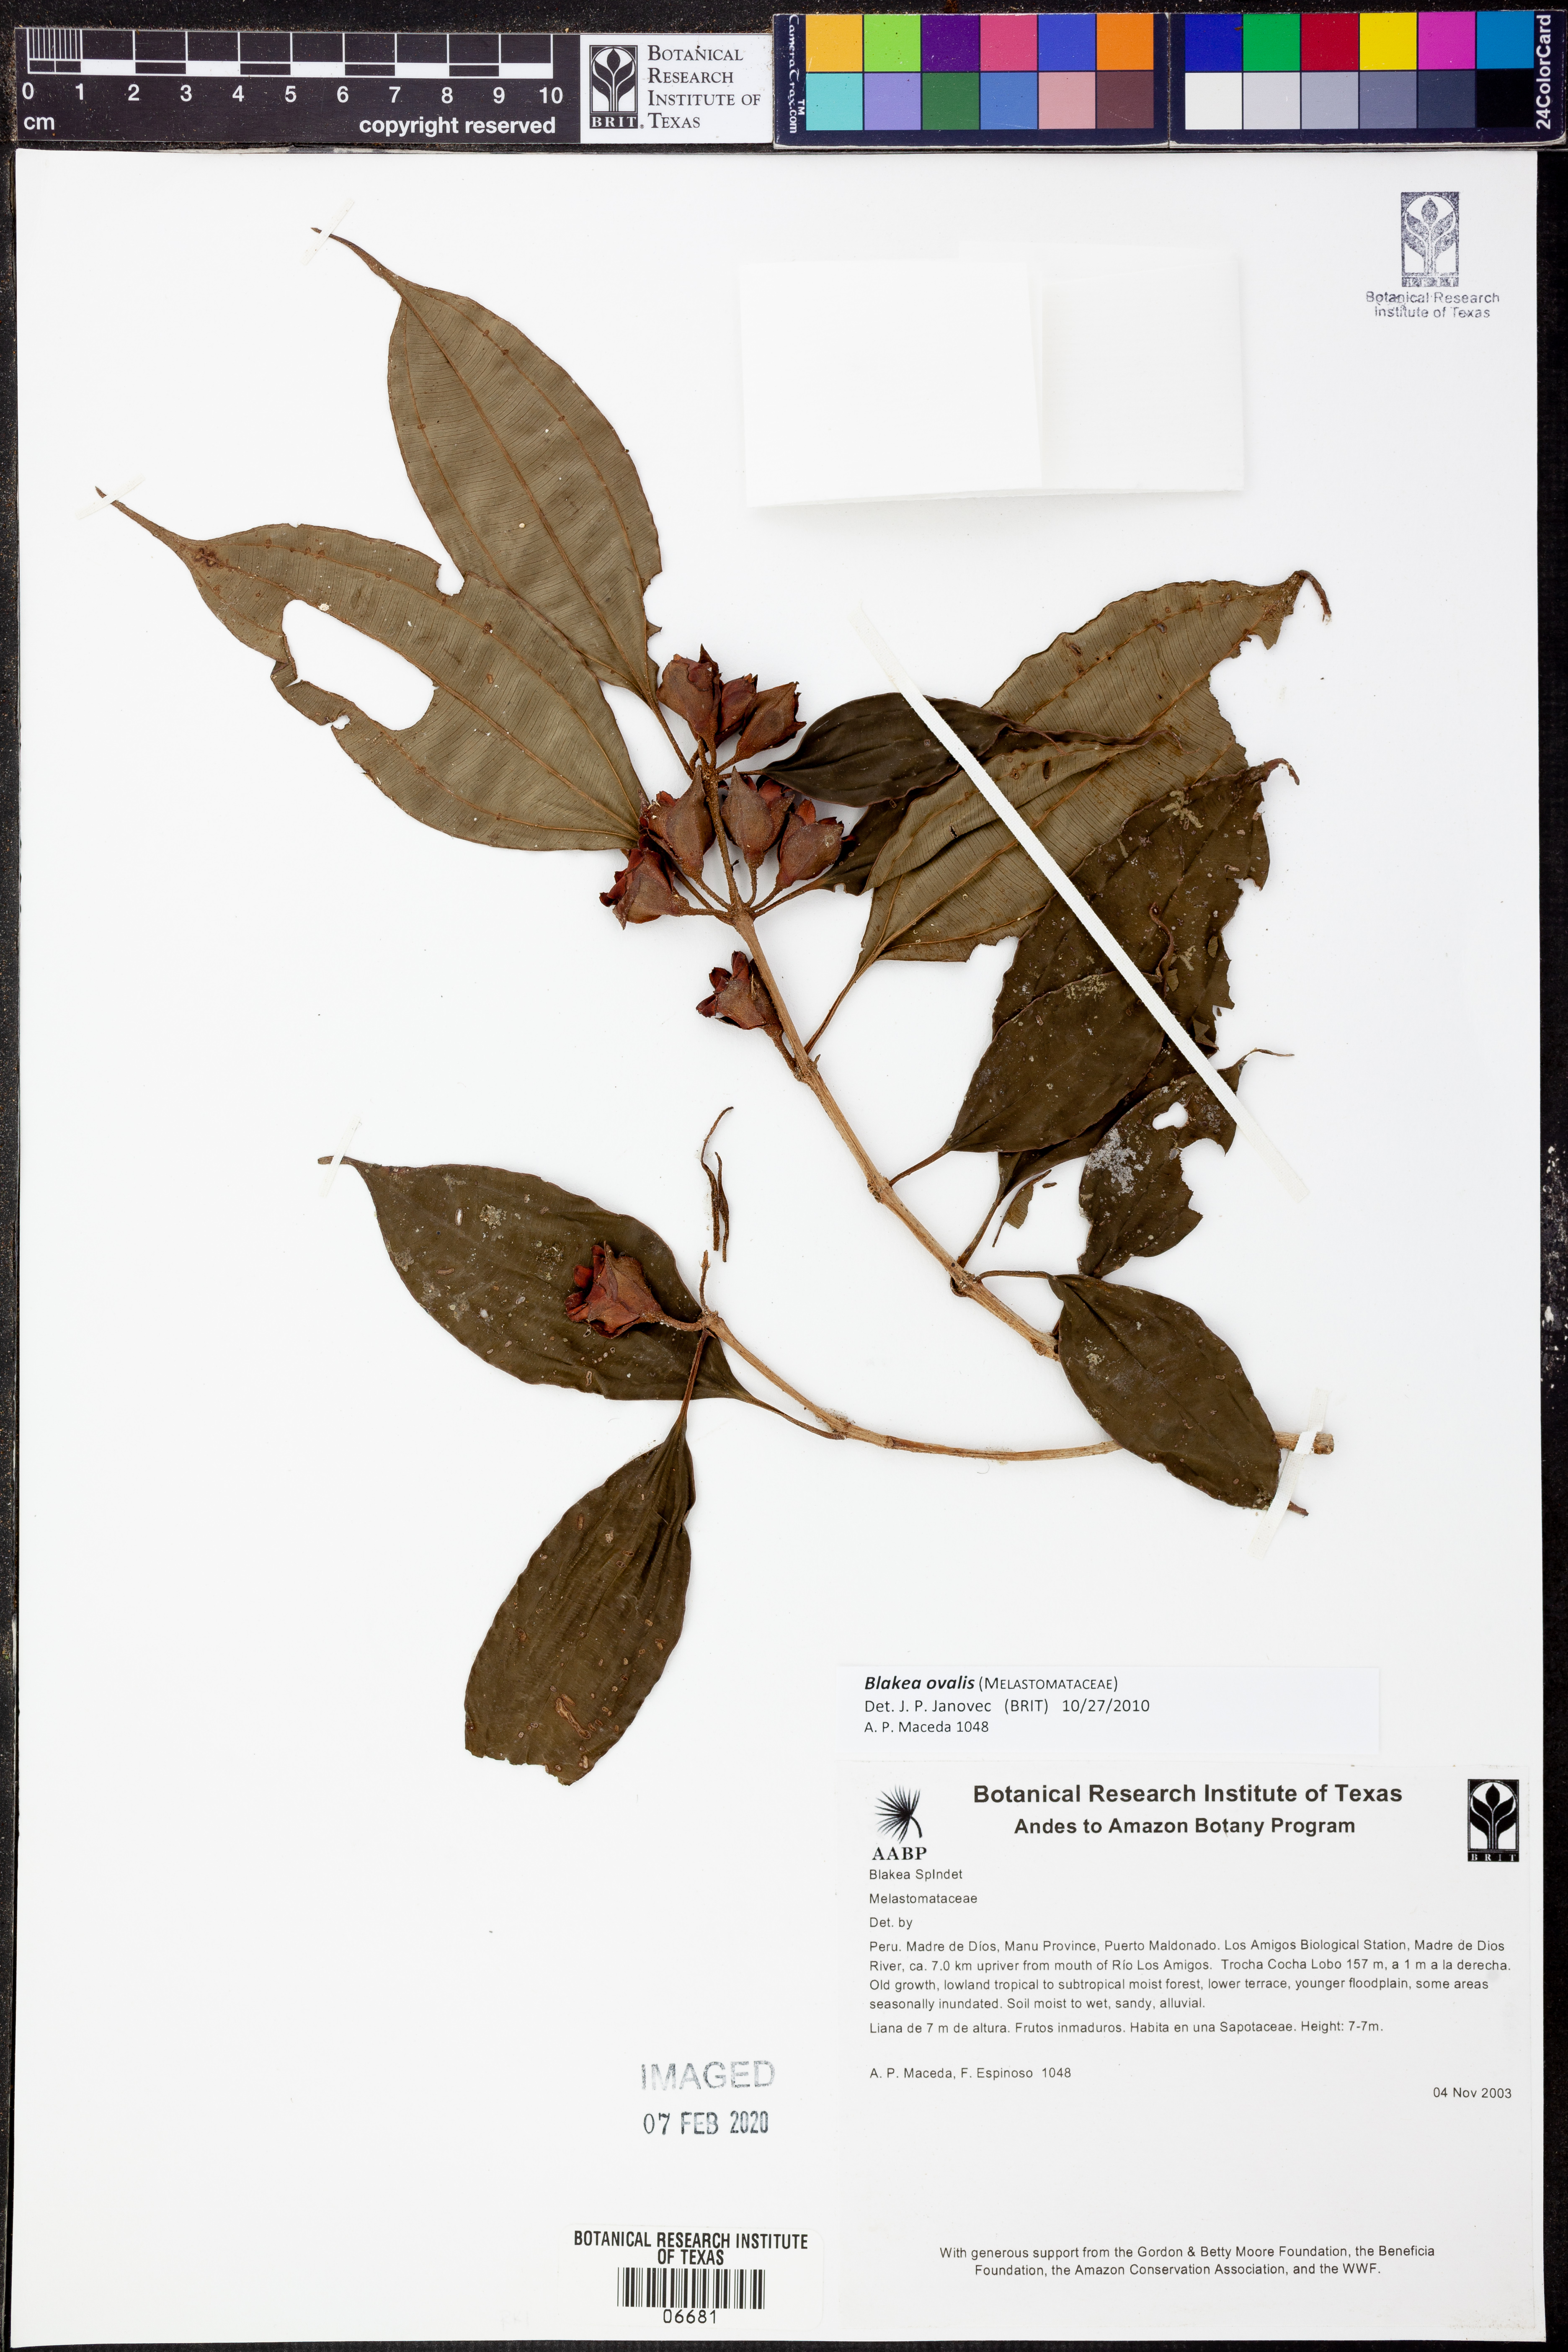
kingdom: Plantae
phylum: Tracheophyta
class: Magnoliopsida
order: Myrtales
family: Melastomataceae
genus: Blakea
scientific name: Blakea ovalis
